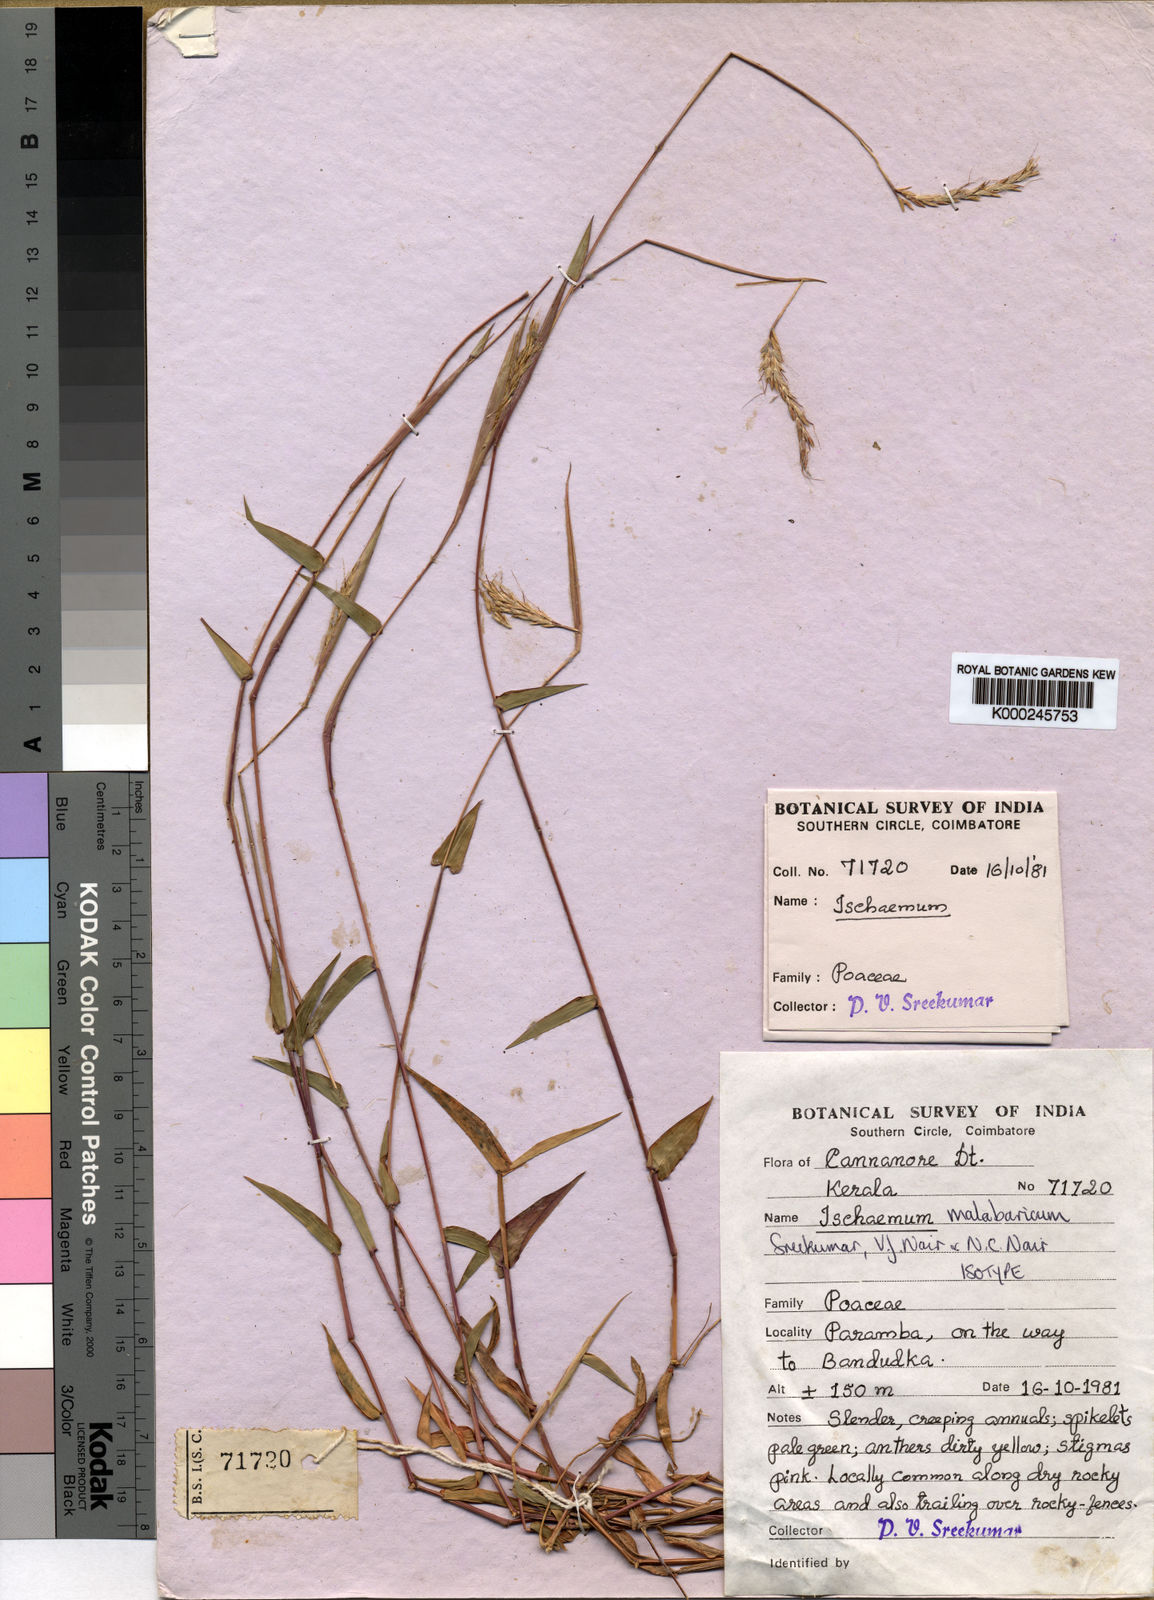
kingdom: Plantae
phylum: Tracheophyta
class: Liliopsida
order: Poales
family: Poaceae
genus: Ischaemum
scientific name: Ischaemum malabaricum
